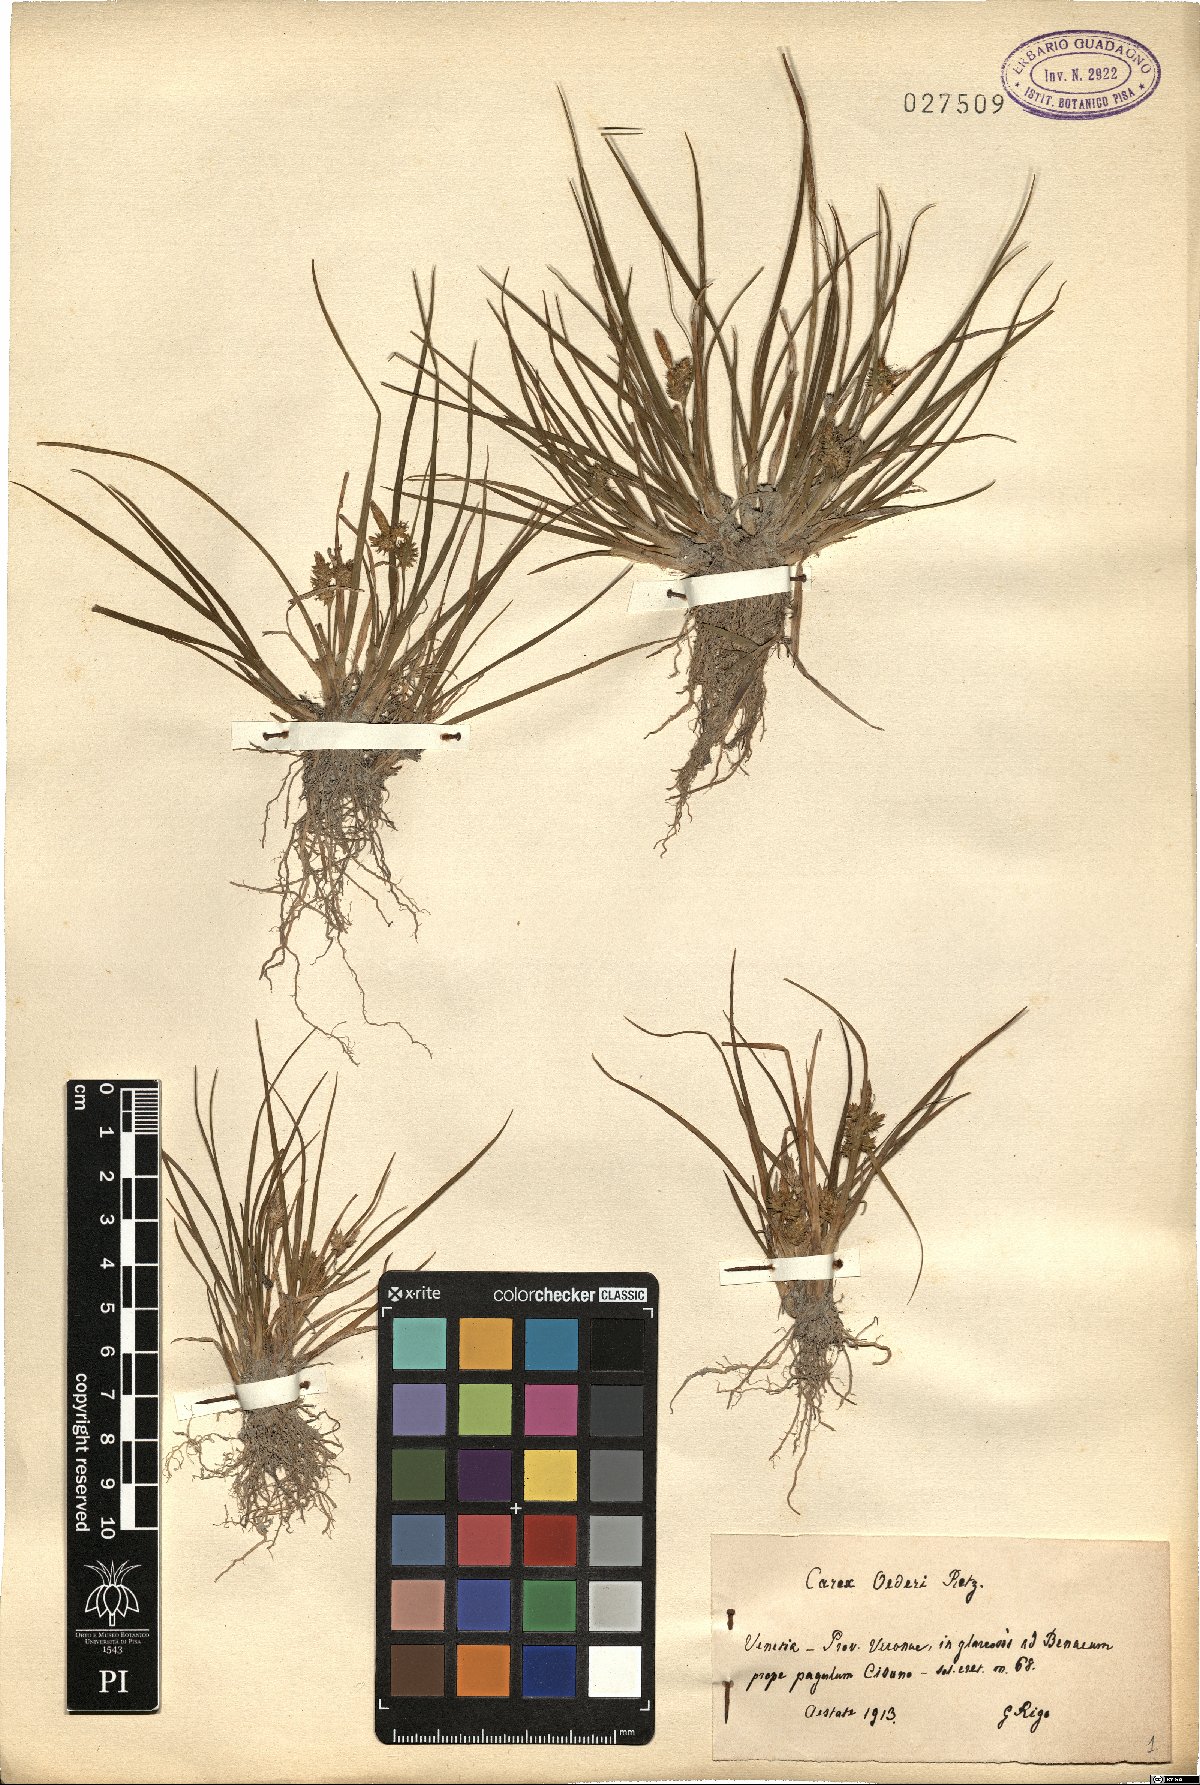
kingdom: Plantae
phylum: Tracheophyta
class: Liliopsida
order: Poales
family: Cyperaceae
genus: Carex
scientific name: Carex oederi
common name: Common & small-fruited yellow-sedge
